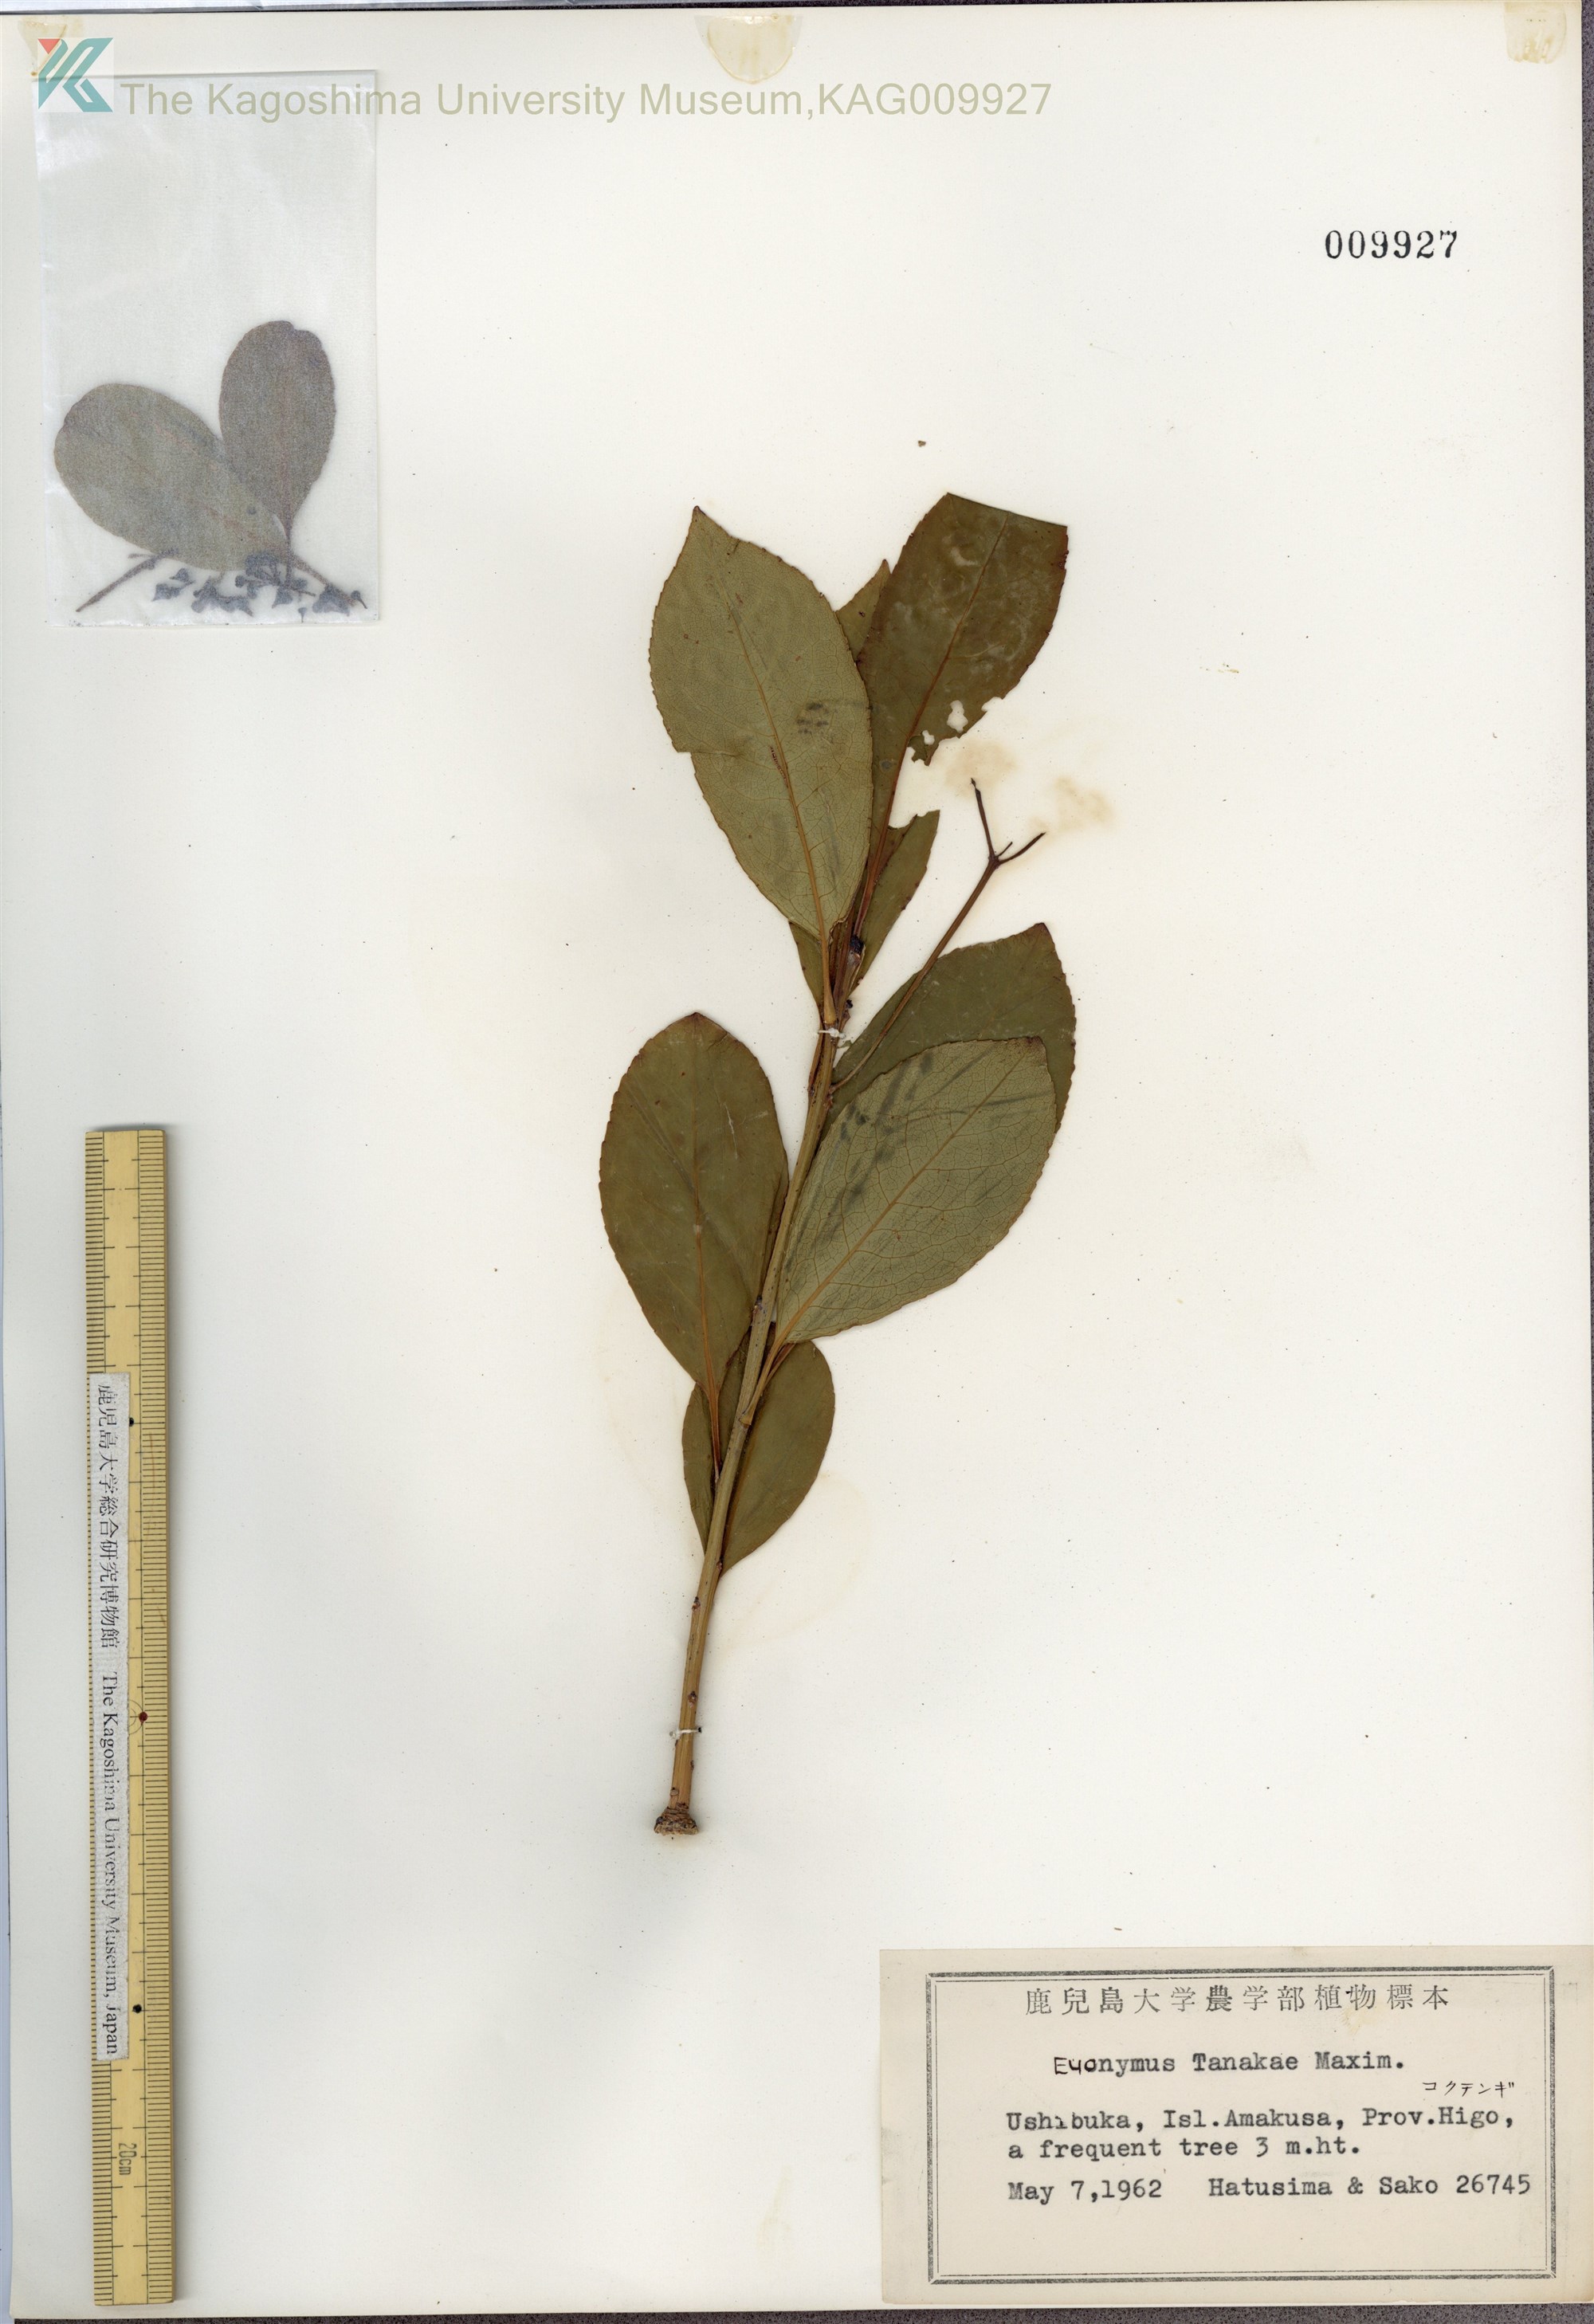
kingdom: Plantae
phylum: Tracheophyta
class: Magnoliopsida
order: Celastrales
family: Celastraceae
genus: Euonymus
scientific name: Euonymus carnosus
